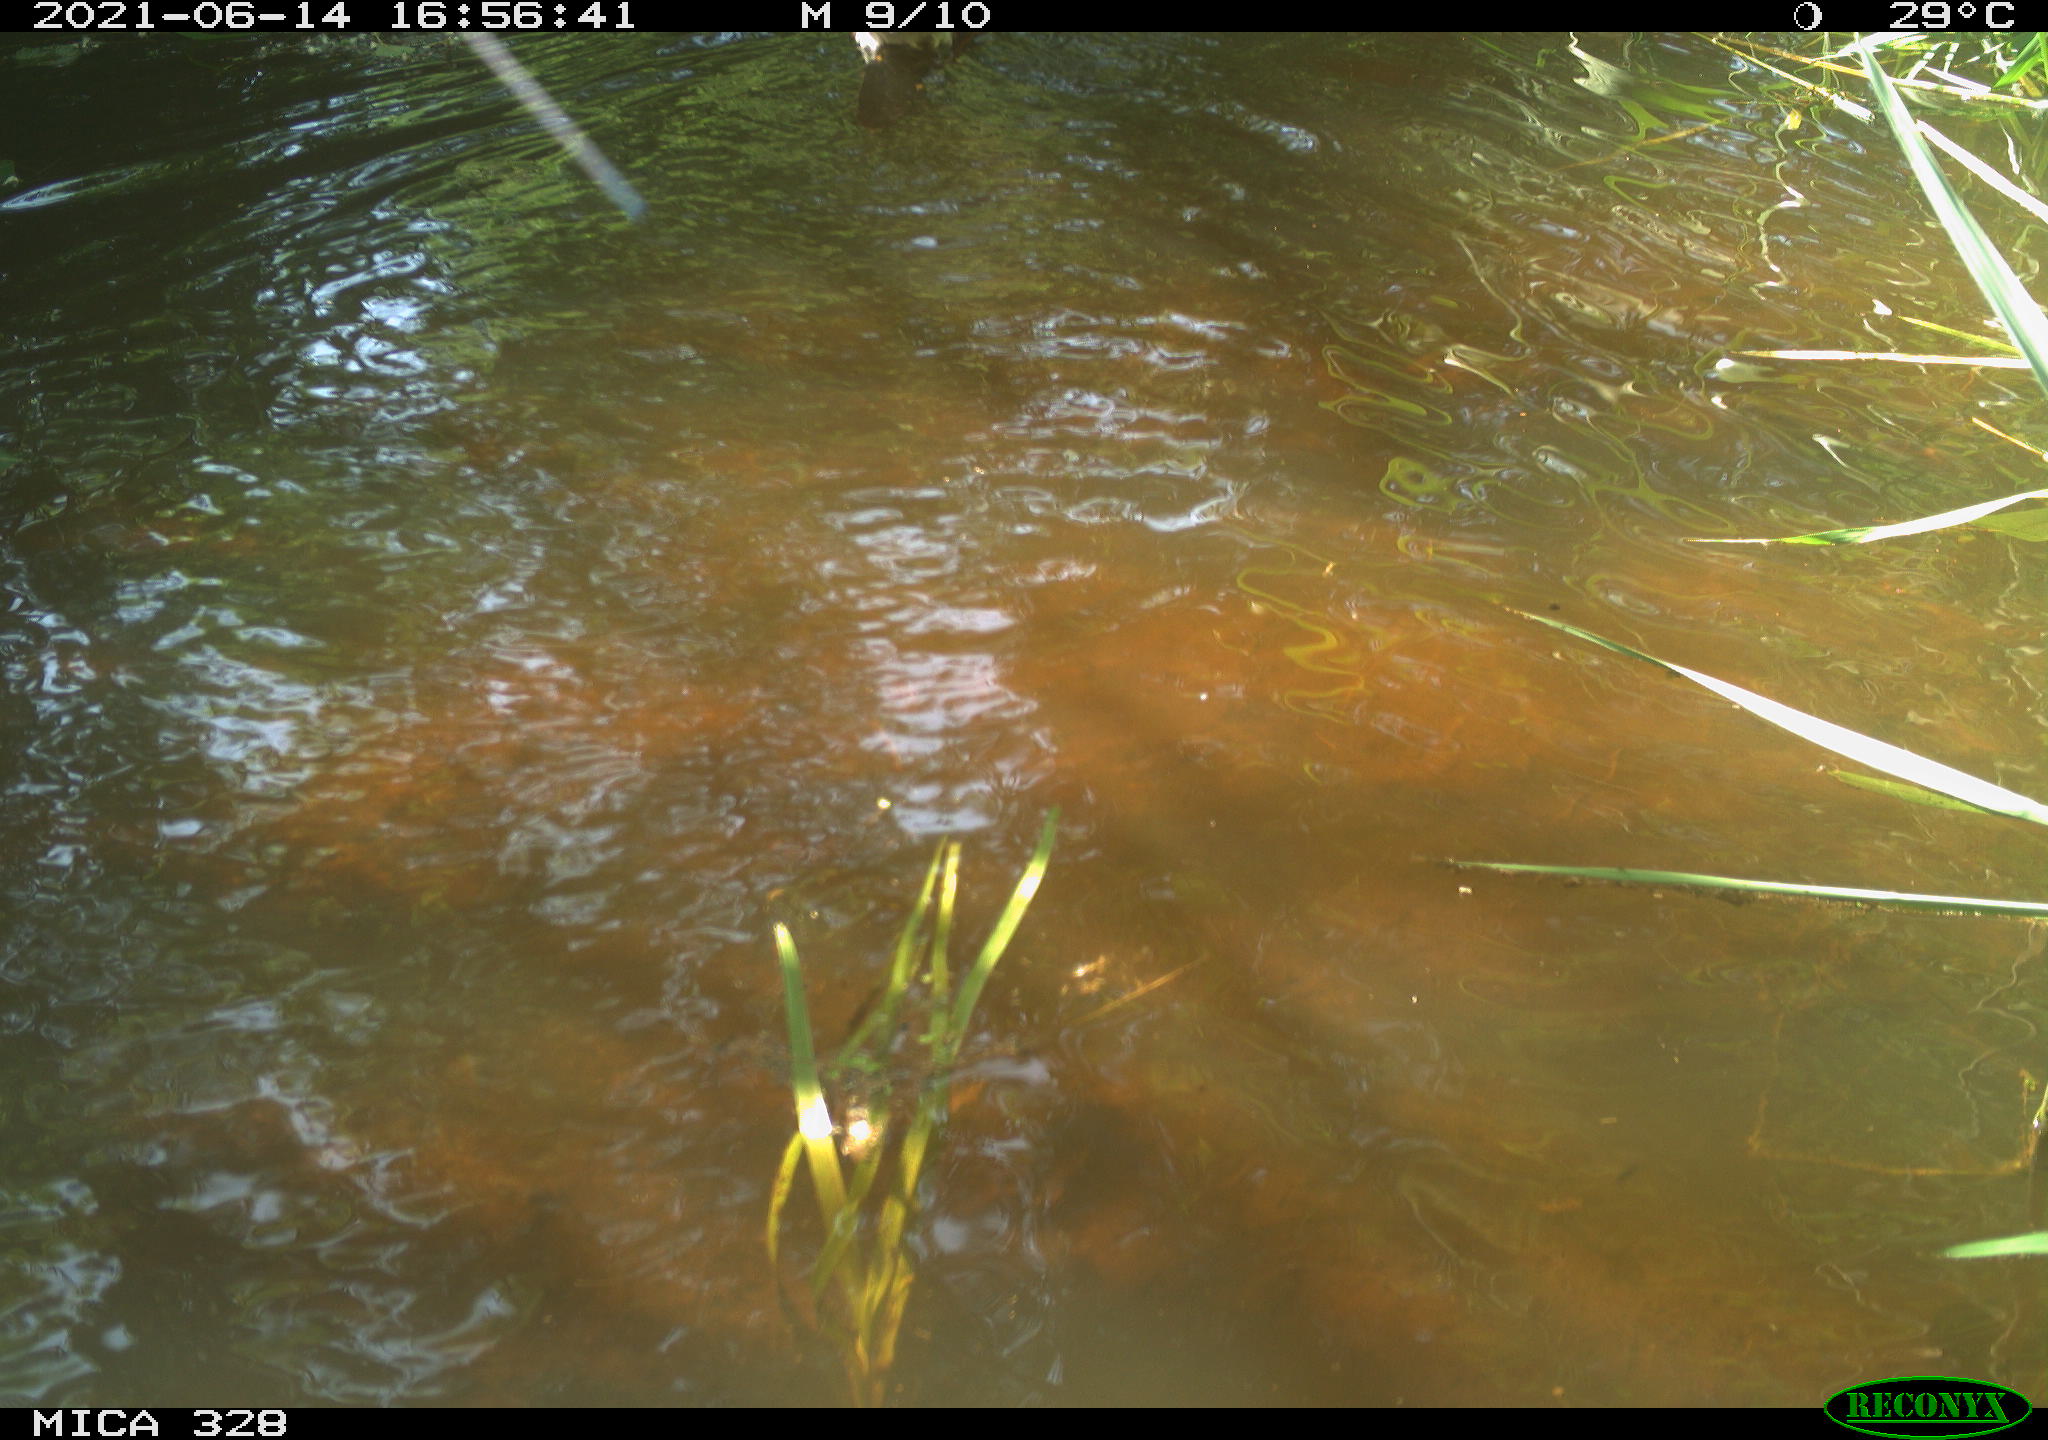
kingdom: Animalia
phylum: Chordata
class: Aves
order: Anseriformes
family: Anatidae
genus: Aix
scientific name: Aix galericulata
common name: Mandarin duck
